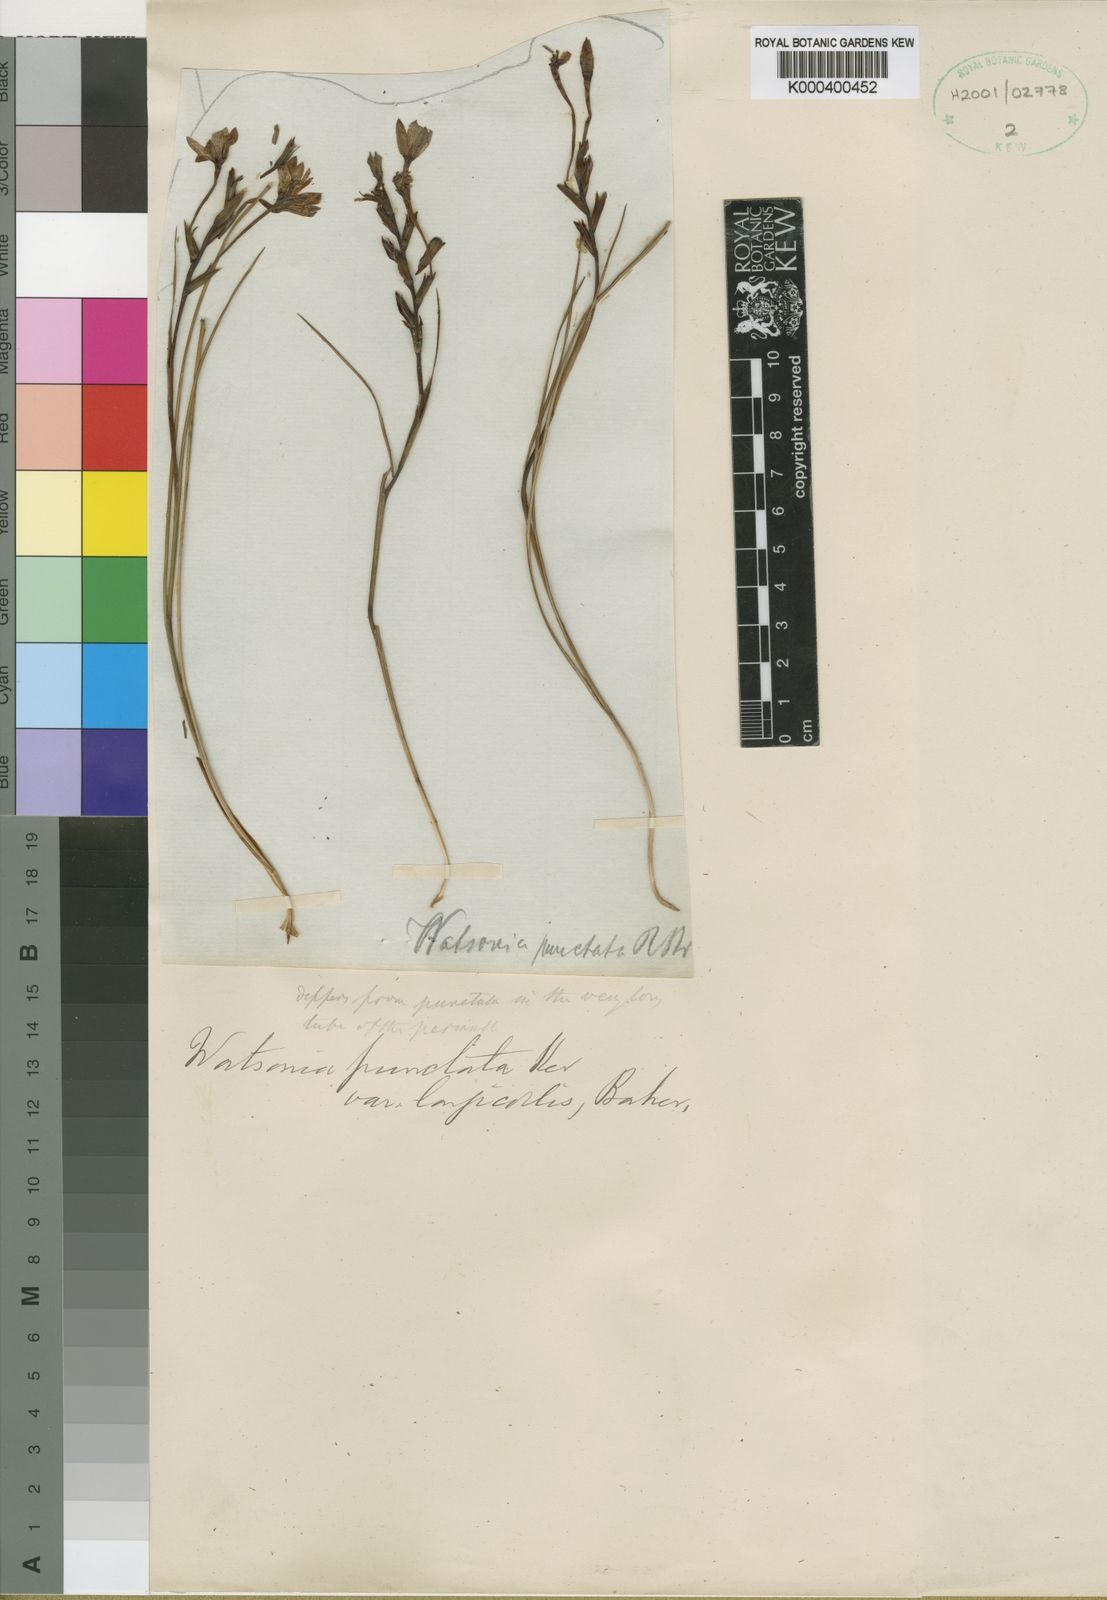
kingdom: Plantae
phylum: Tracheophyta
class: Liliopsida
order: Asparagales
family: Iridaceae
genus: Thereianthus
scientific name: Thereianthus longicollis
